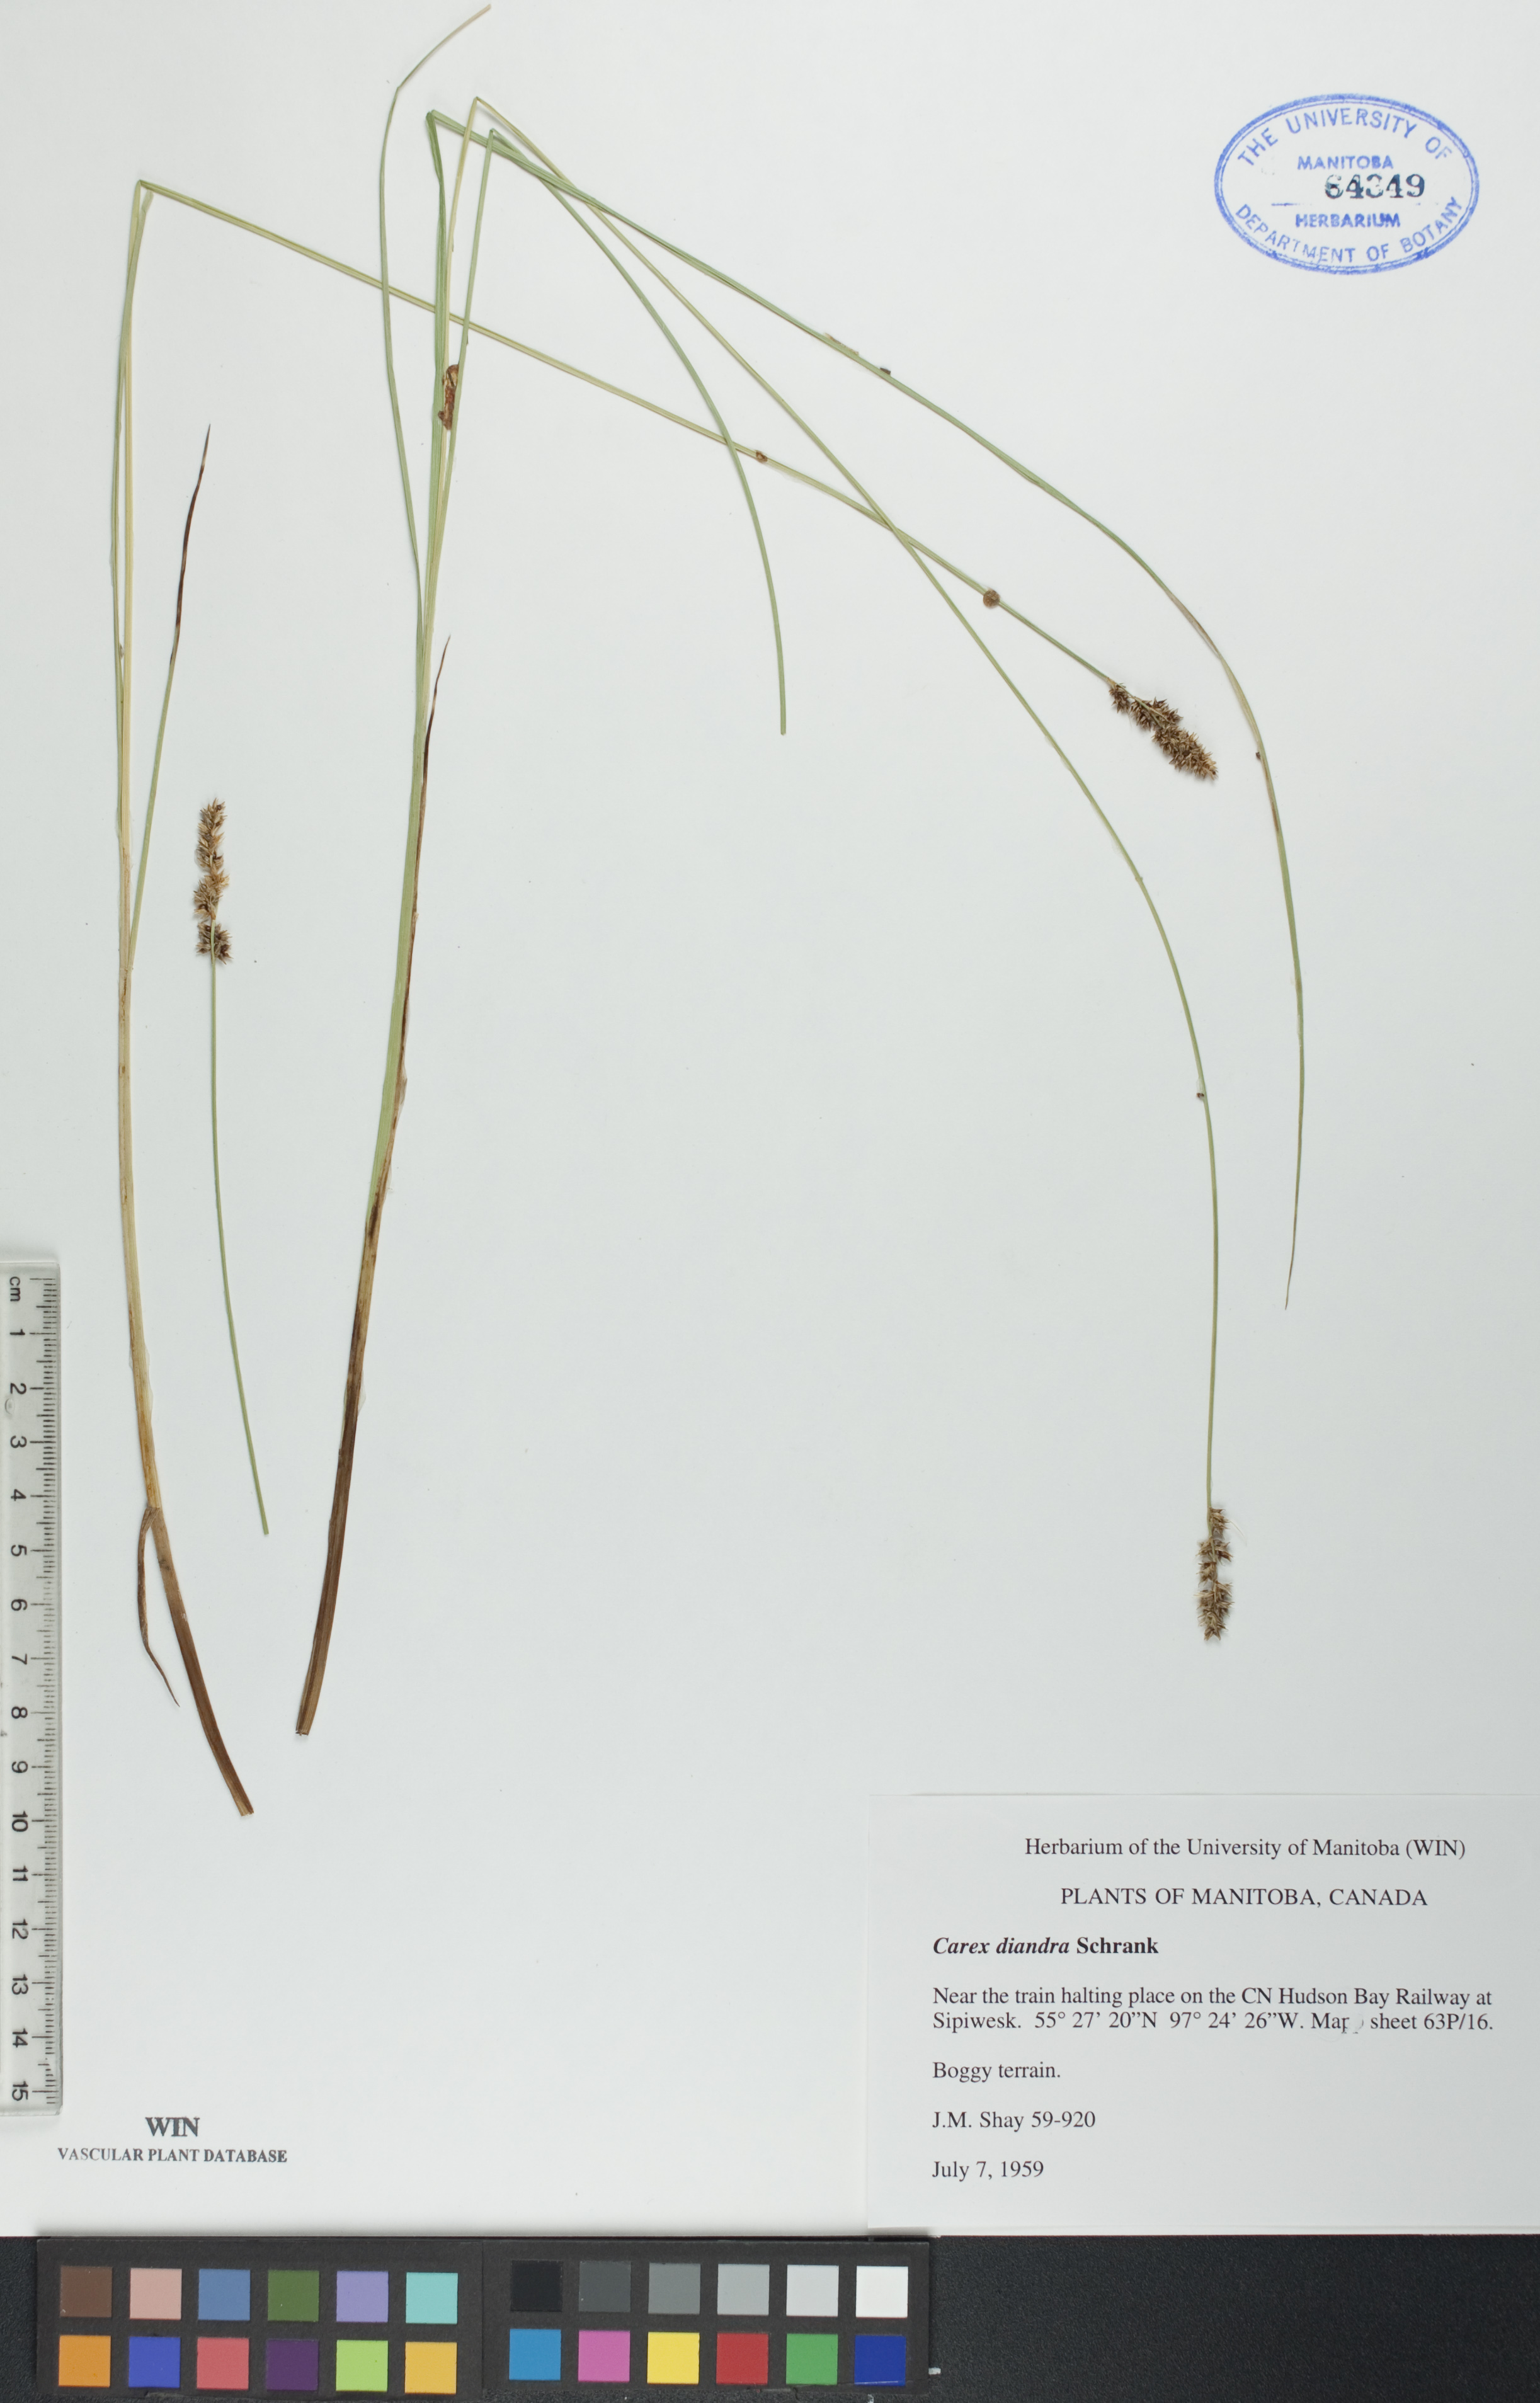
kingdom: Plantae
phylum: Tracheophyta
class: Liliopsida
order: Poales
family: Cyperaceae
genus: Carex
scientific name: Carex diandra
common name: Lesser tussock-sedge
